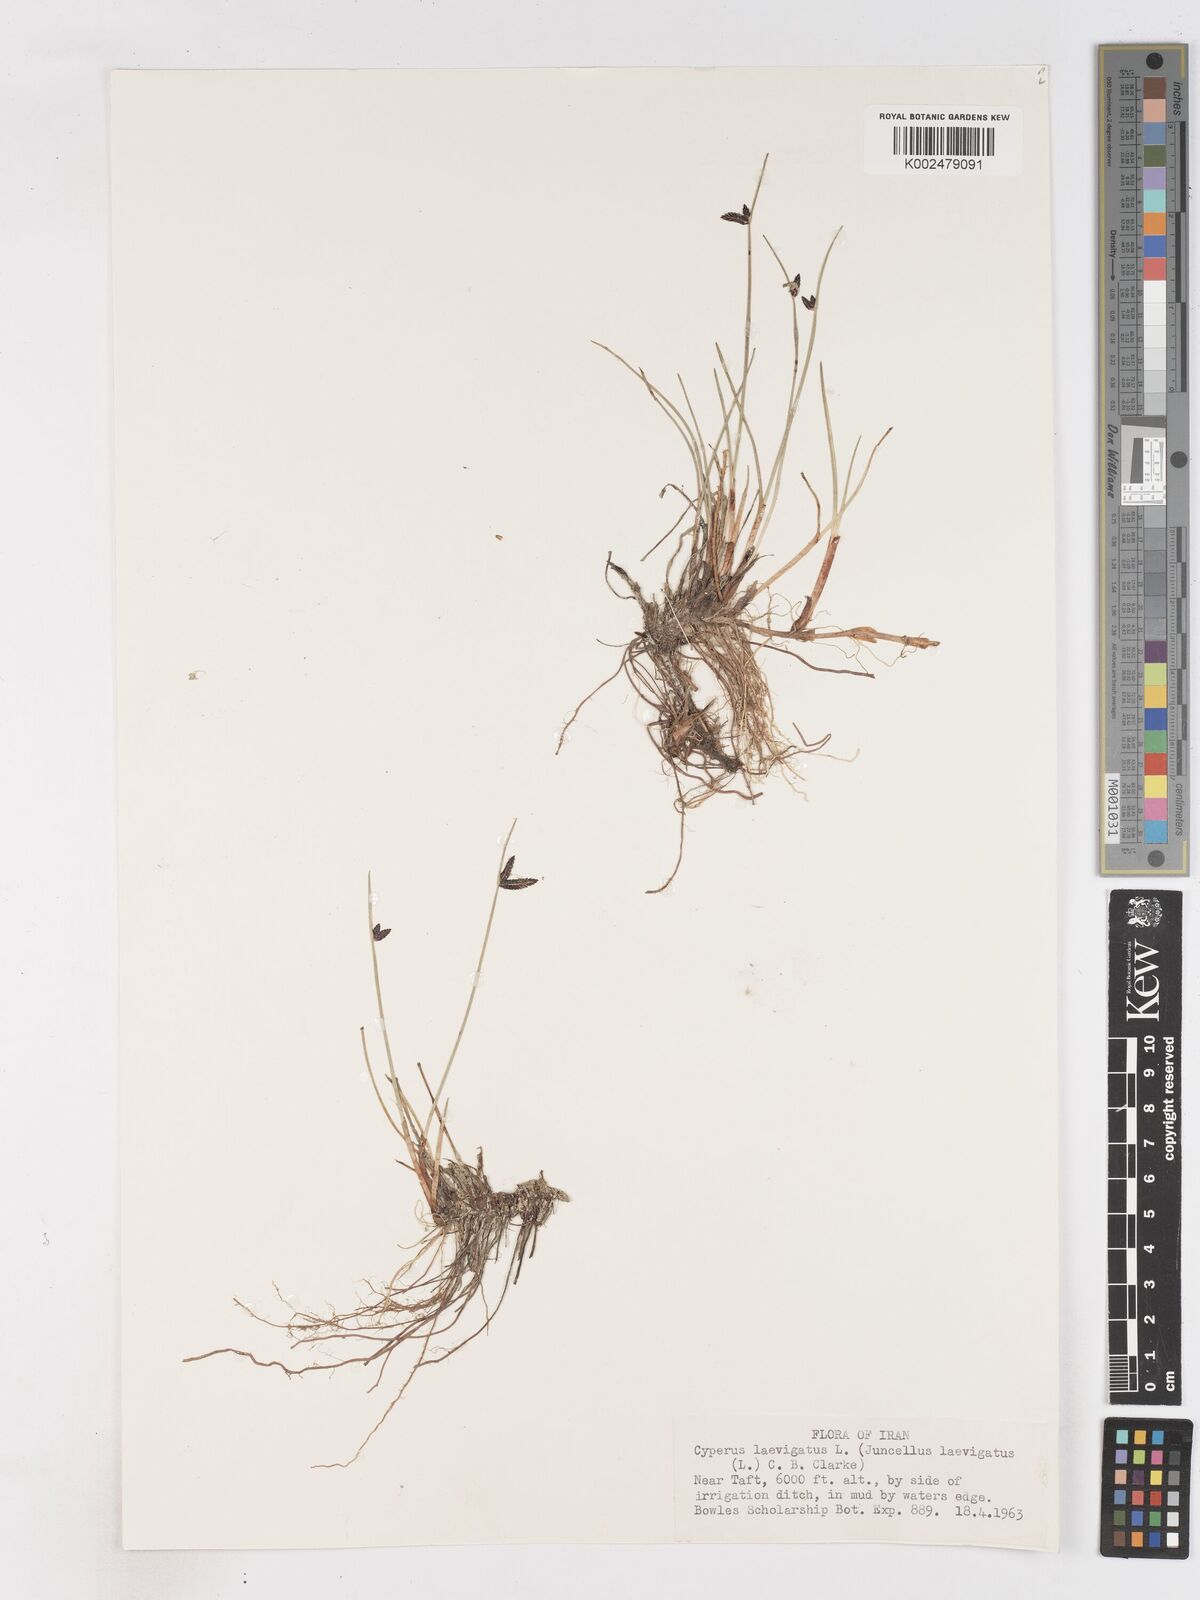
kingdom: Plantae
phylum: Tracheophyta
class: Liliopsida
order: Poales
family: Cyperaceae
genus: Cyperus
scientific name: Cyperus laevigatus
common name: Smooth flat sedge
